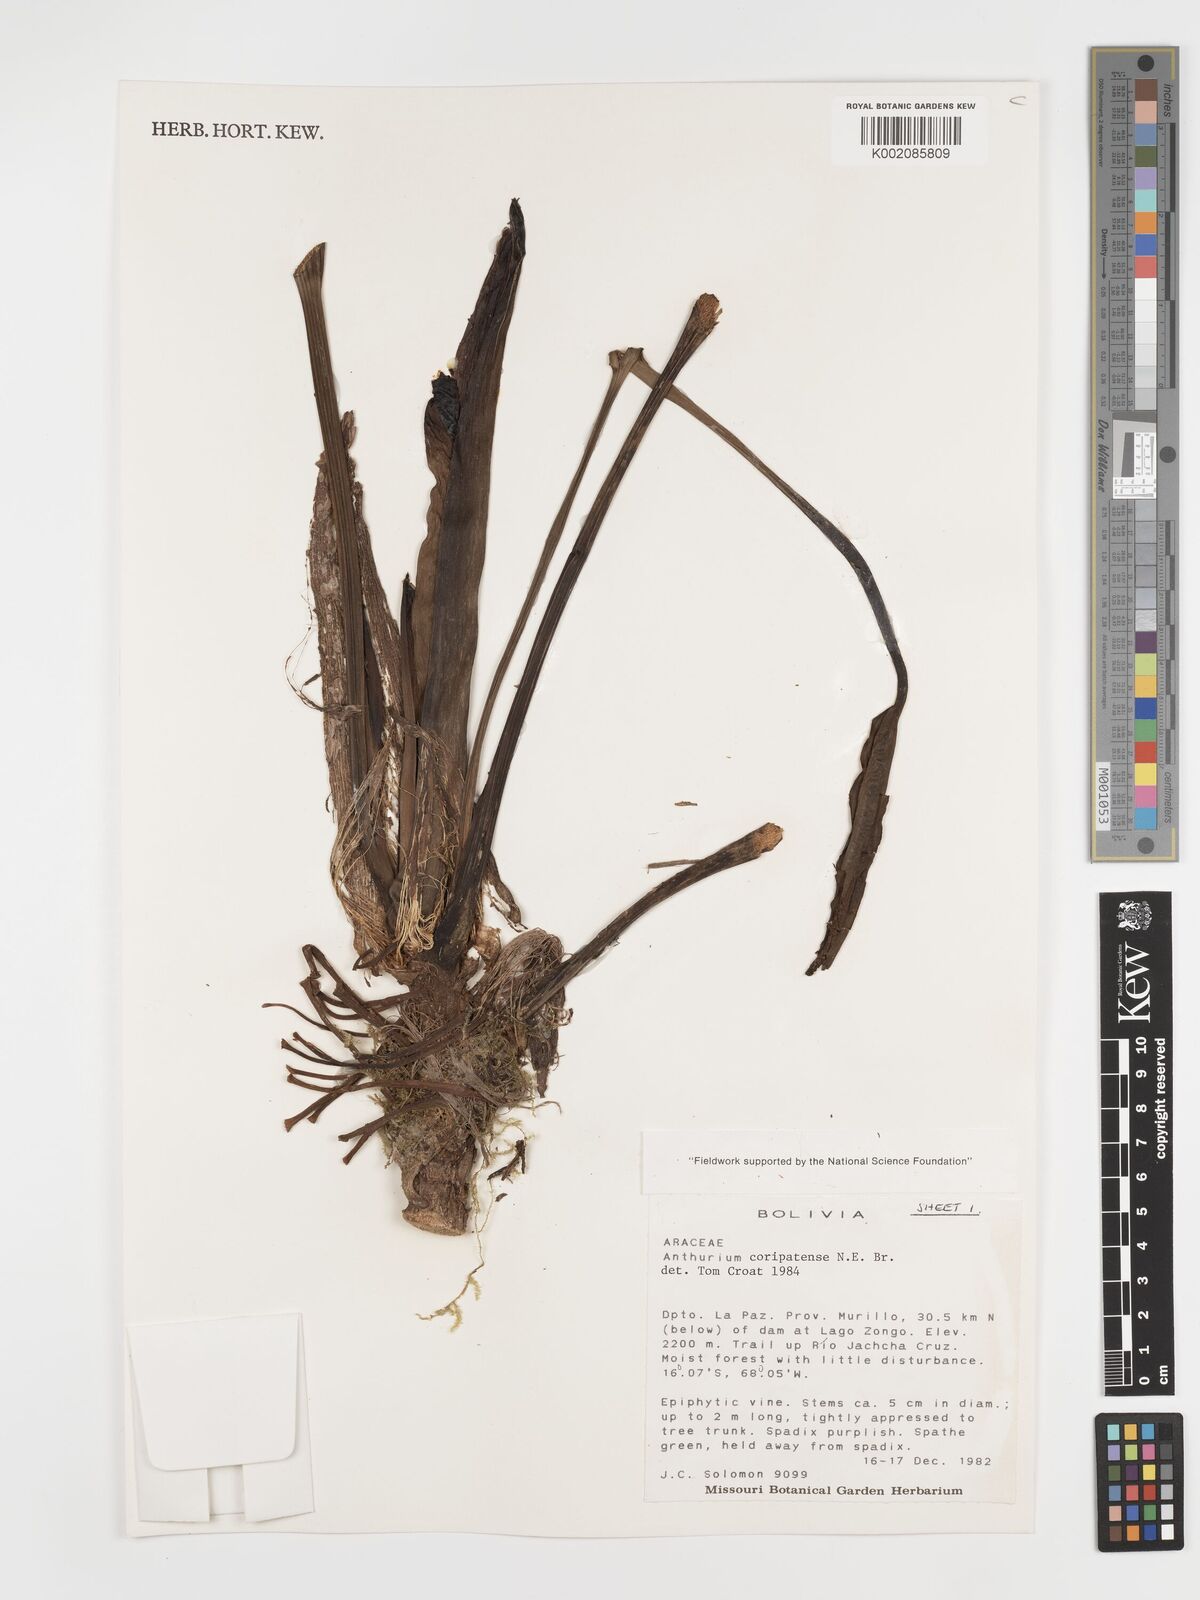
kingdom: Plantae
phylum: Tracheophyta
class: Liliopsida
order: Alismatales
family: Araceae
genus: Anthurium
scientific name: Anthurium coripatense
